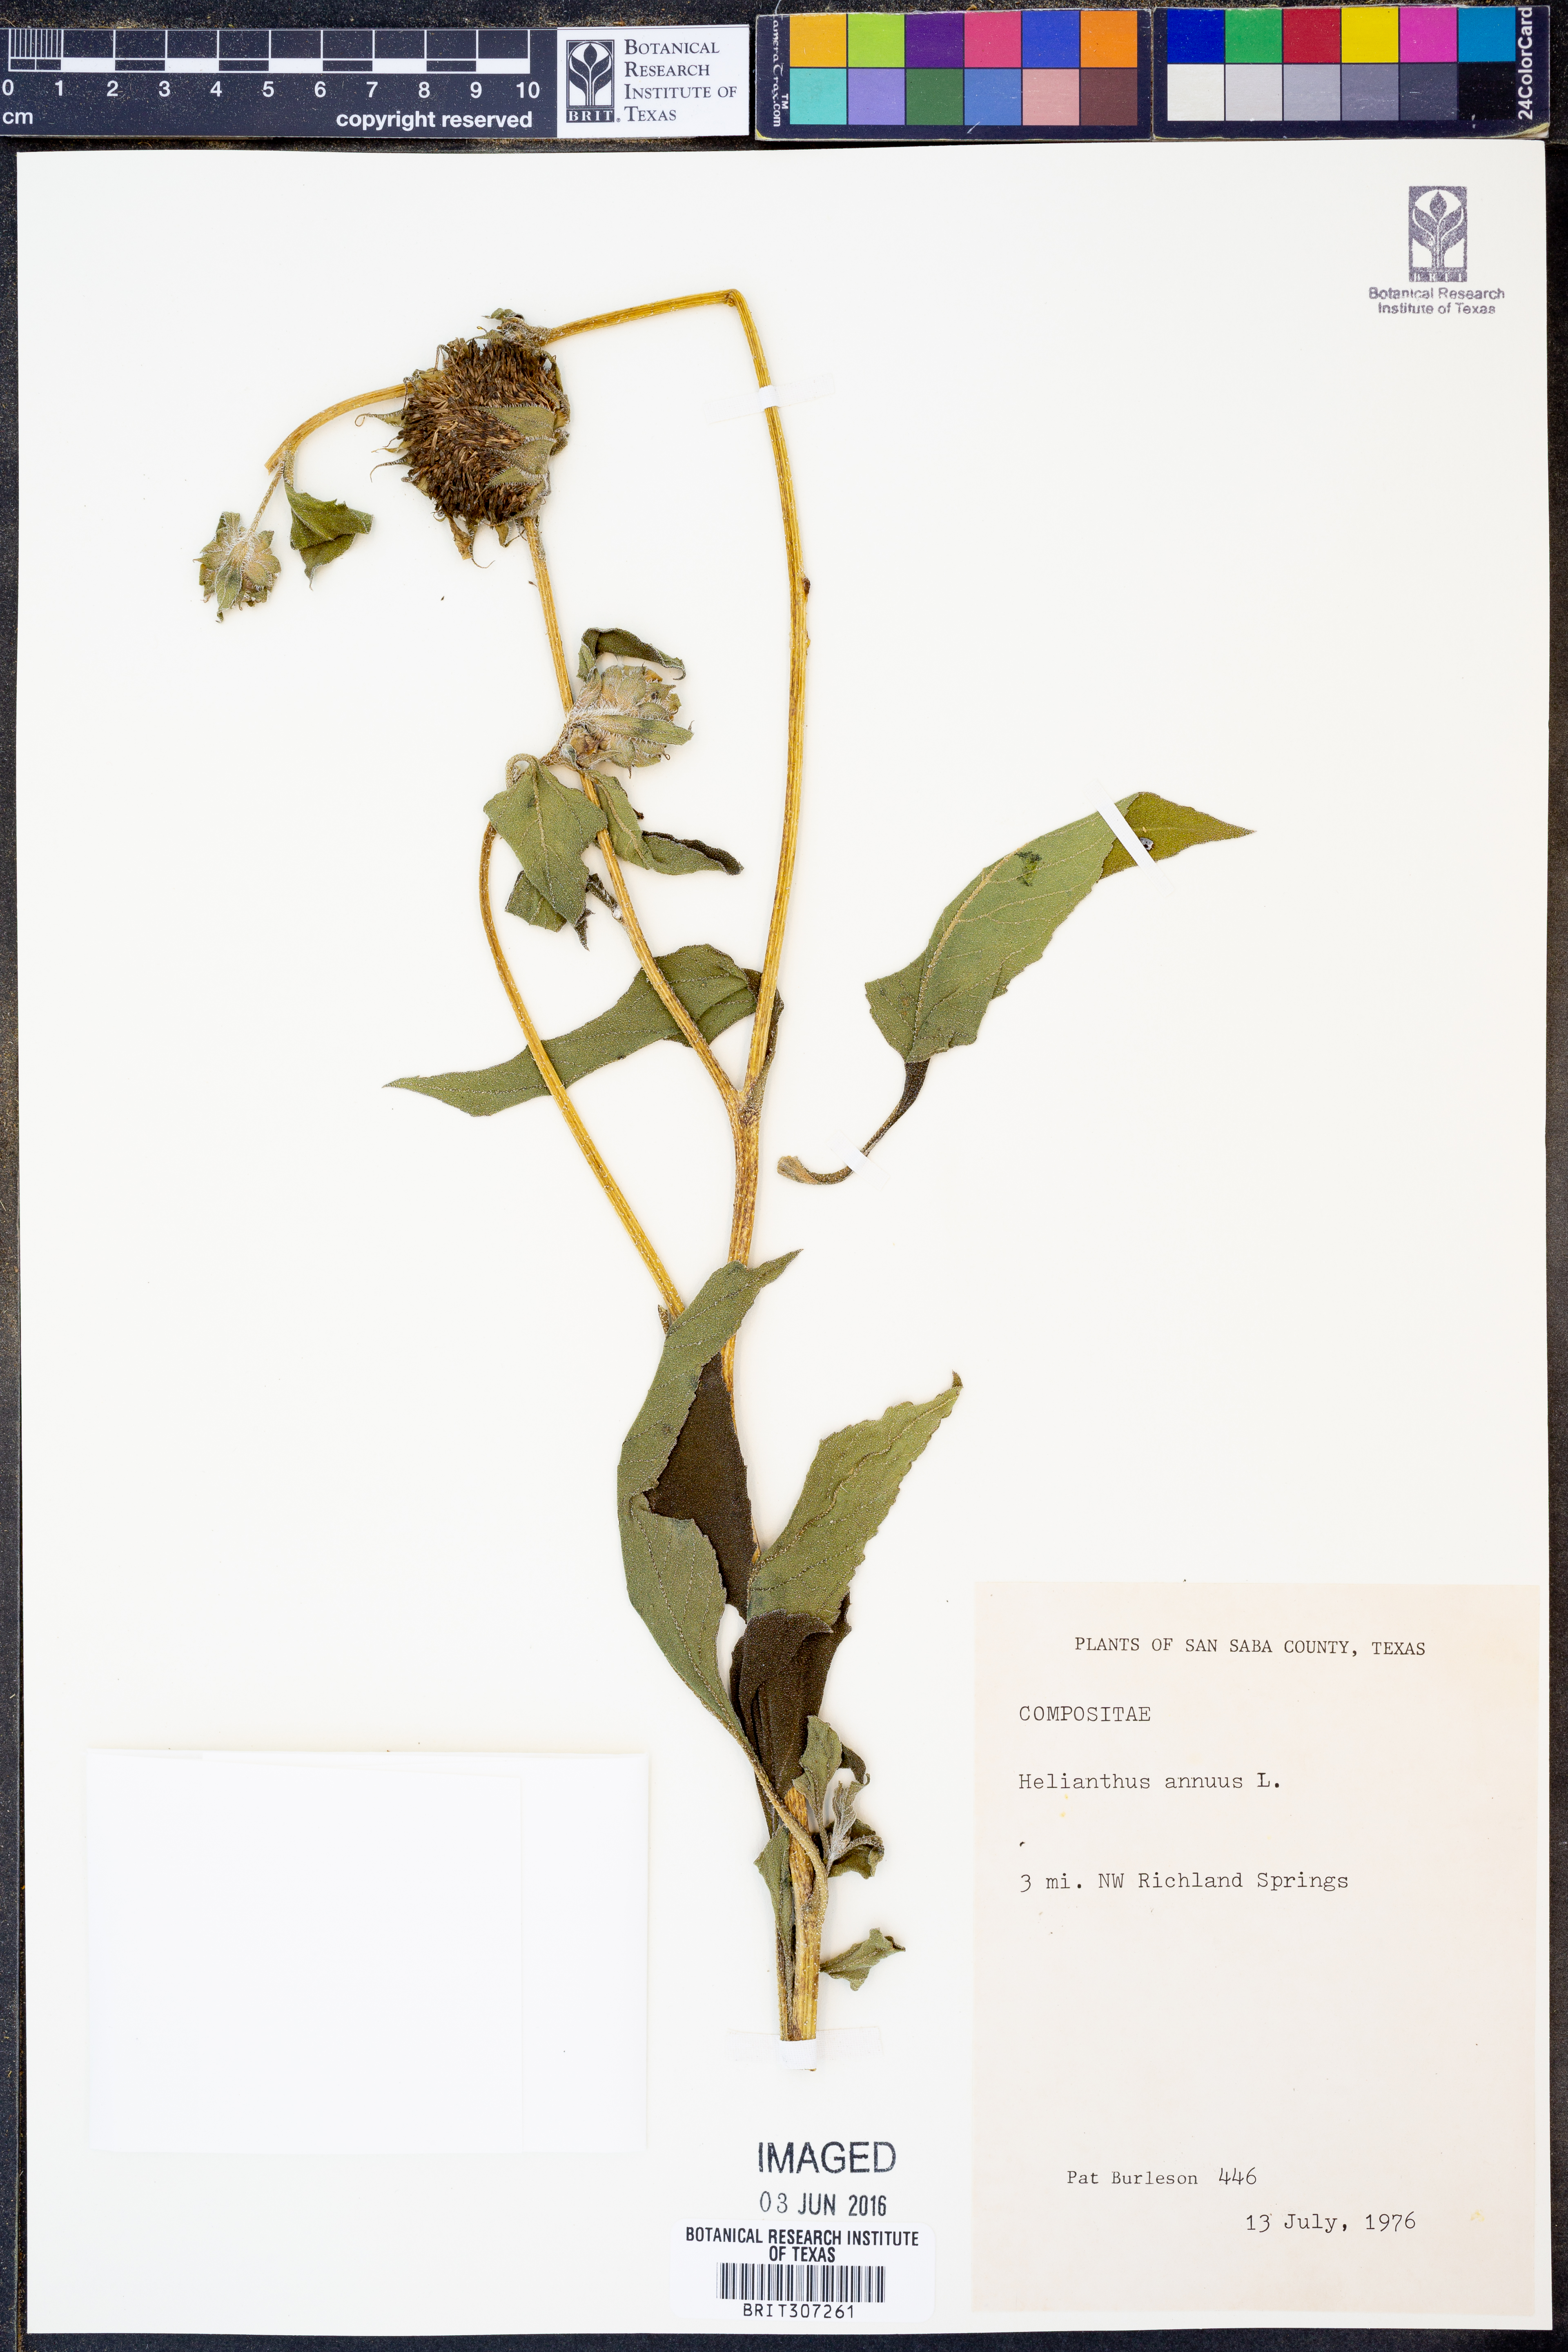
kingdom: Plantae
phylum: Tracheophyta
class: Magnoliopsida
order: Asterales
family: Asteraceae
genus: Helianthus
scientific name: Helianthus annuus
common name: Sunflower
